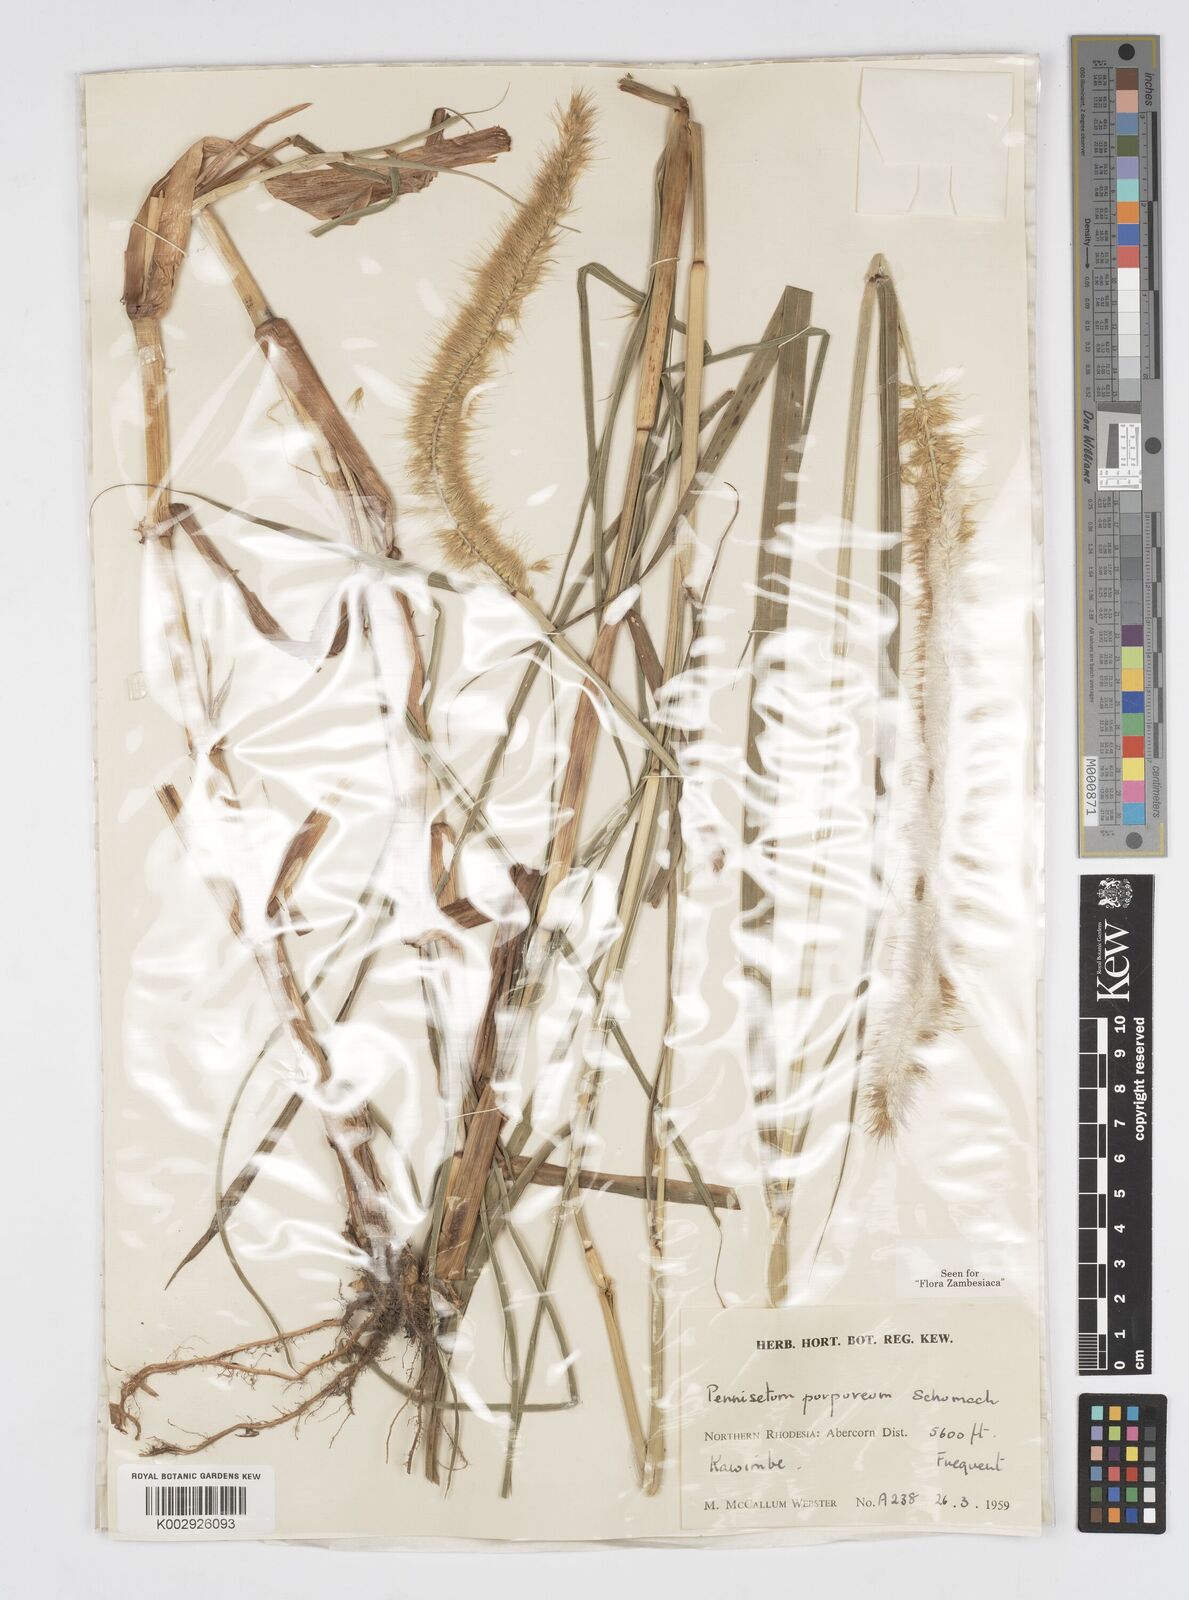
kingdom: Plantae
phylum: Tracheophyta
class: Liliopsida
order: Poales
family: Poaceae
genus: Cenchrus
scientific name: Cenchrus purpureus
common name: Elephant grass
